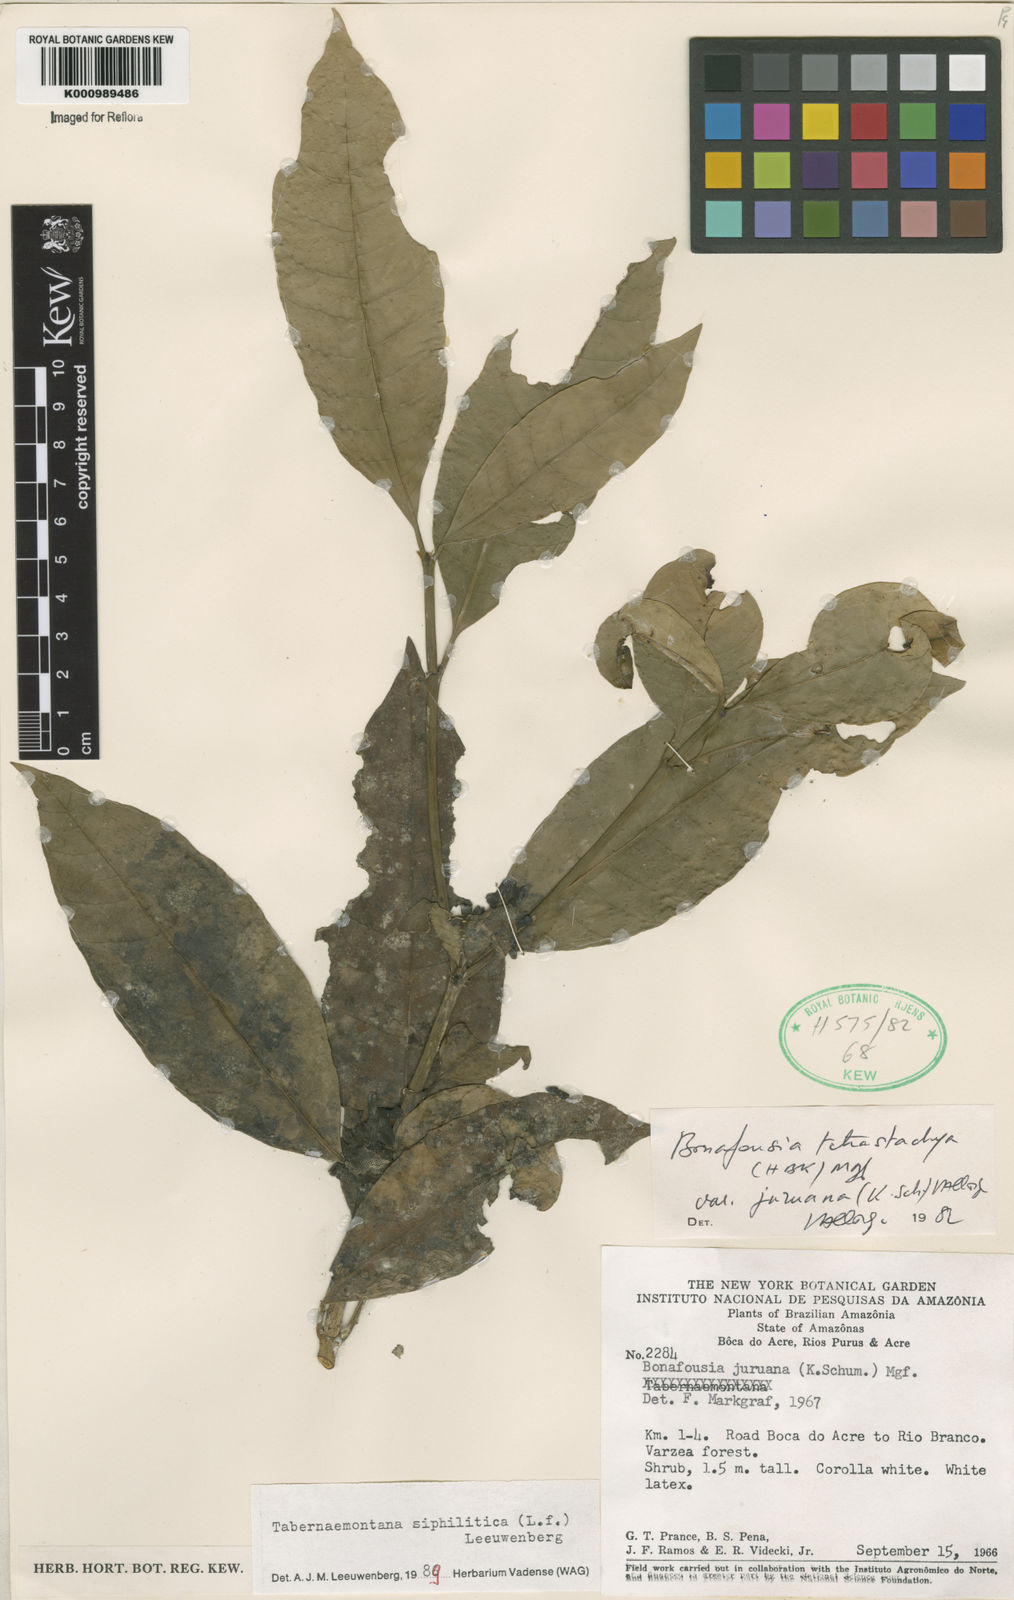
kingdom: Plantae
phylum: Tracheophyta
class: Magnoliopsida
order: Gentianales
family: Apocynaceae
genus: Tabernaemontana
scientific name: Tabernaemontana siphilitica
